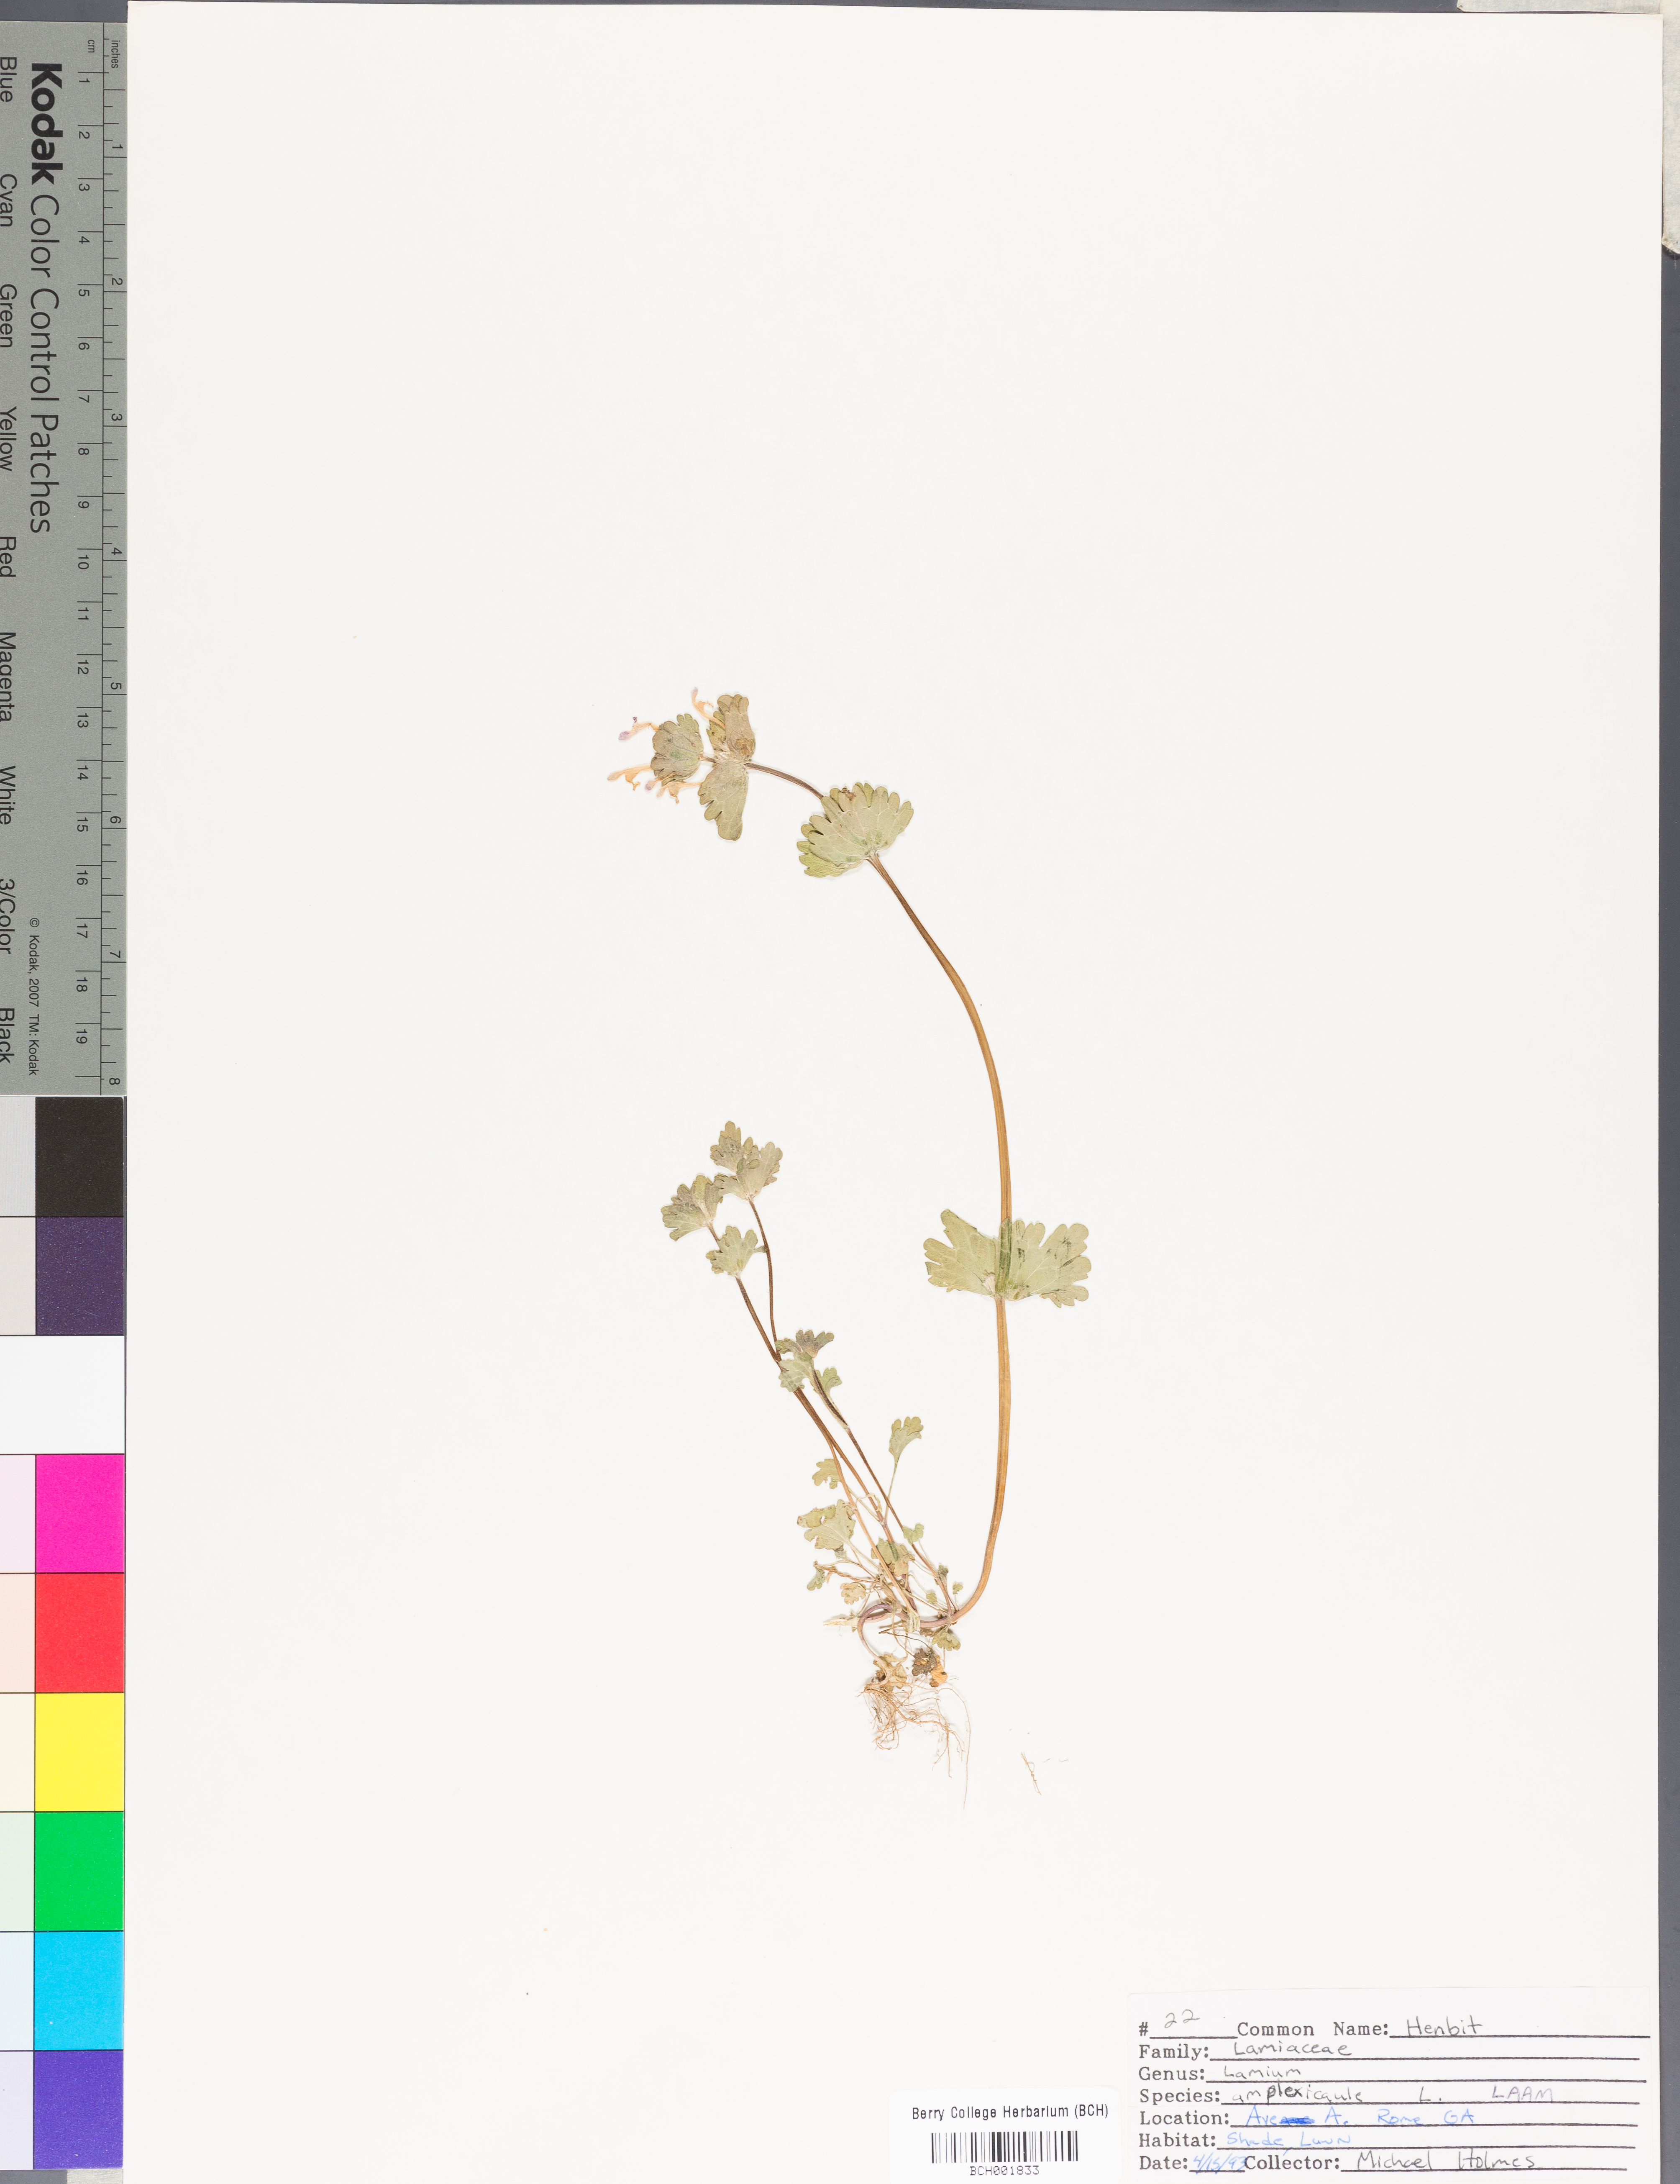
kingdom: Plantae
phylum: Tracheophyta
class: Magnoliopsida
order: Lamiales
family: Lamiaceae
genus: Lamium
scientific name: Lamium amplexicaule
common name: Henbit dead-nettle
